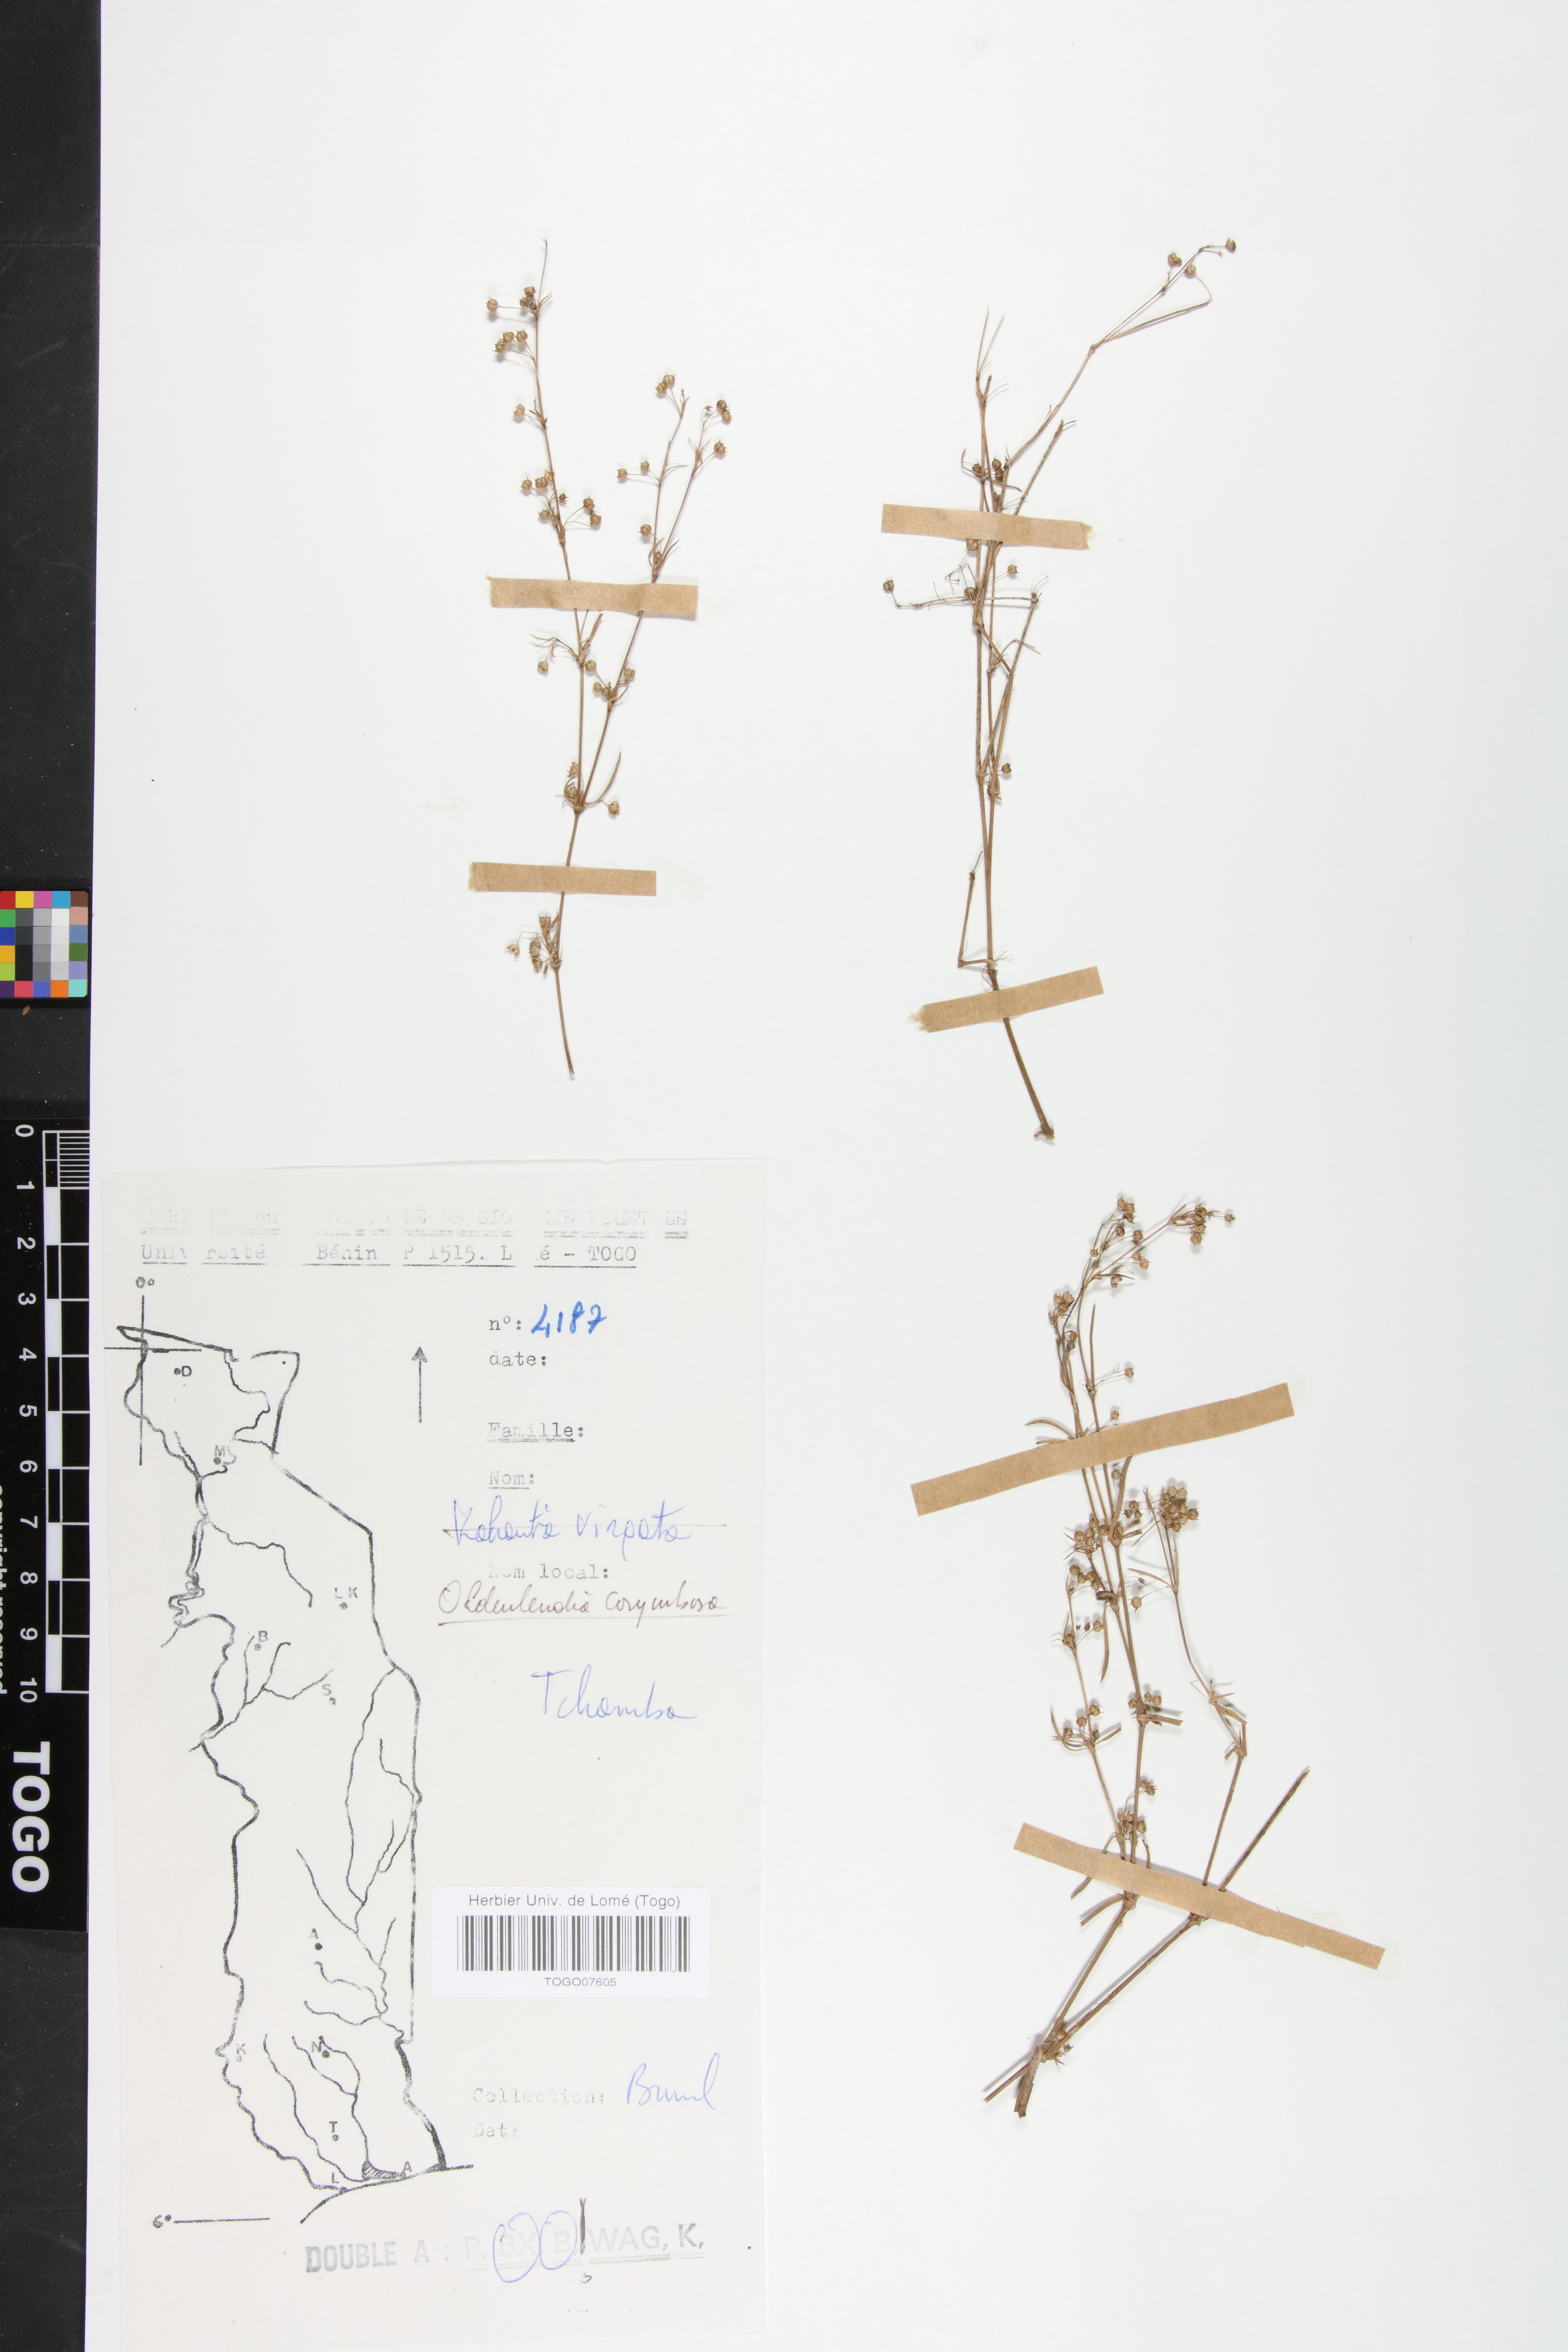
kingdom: Plantae
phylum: Tracheophyta
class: Magnoliopsida
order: Gentianales
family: Rubiaceae
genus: Oldenlandia
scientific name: Oldenlandia corymbosa
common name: Flat-top mille graines
